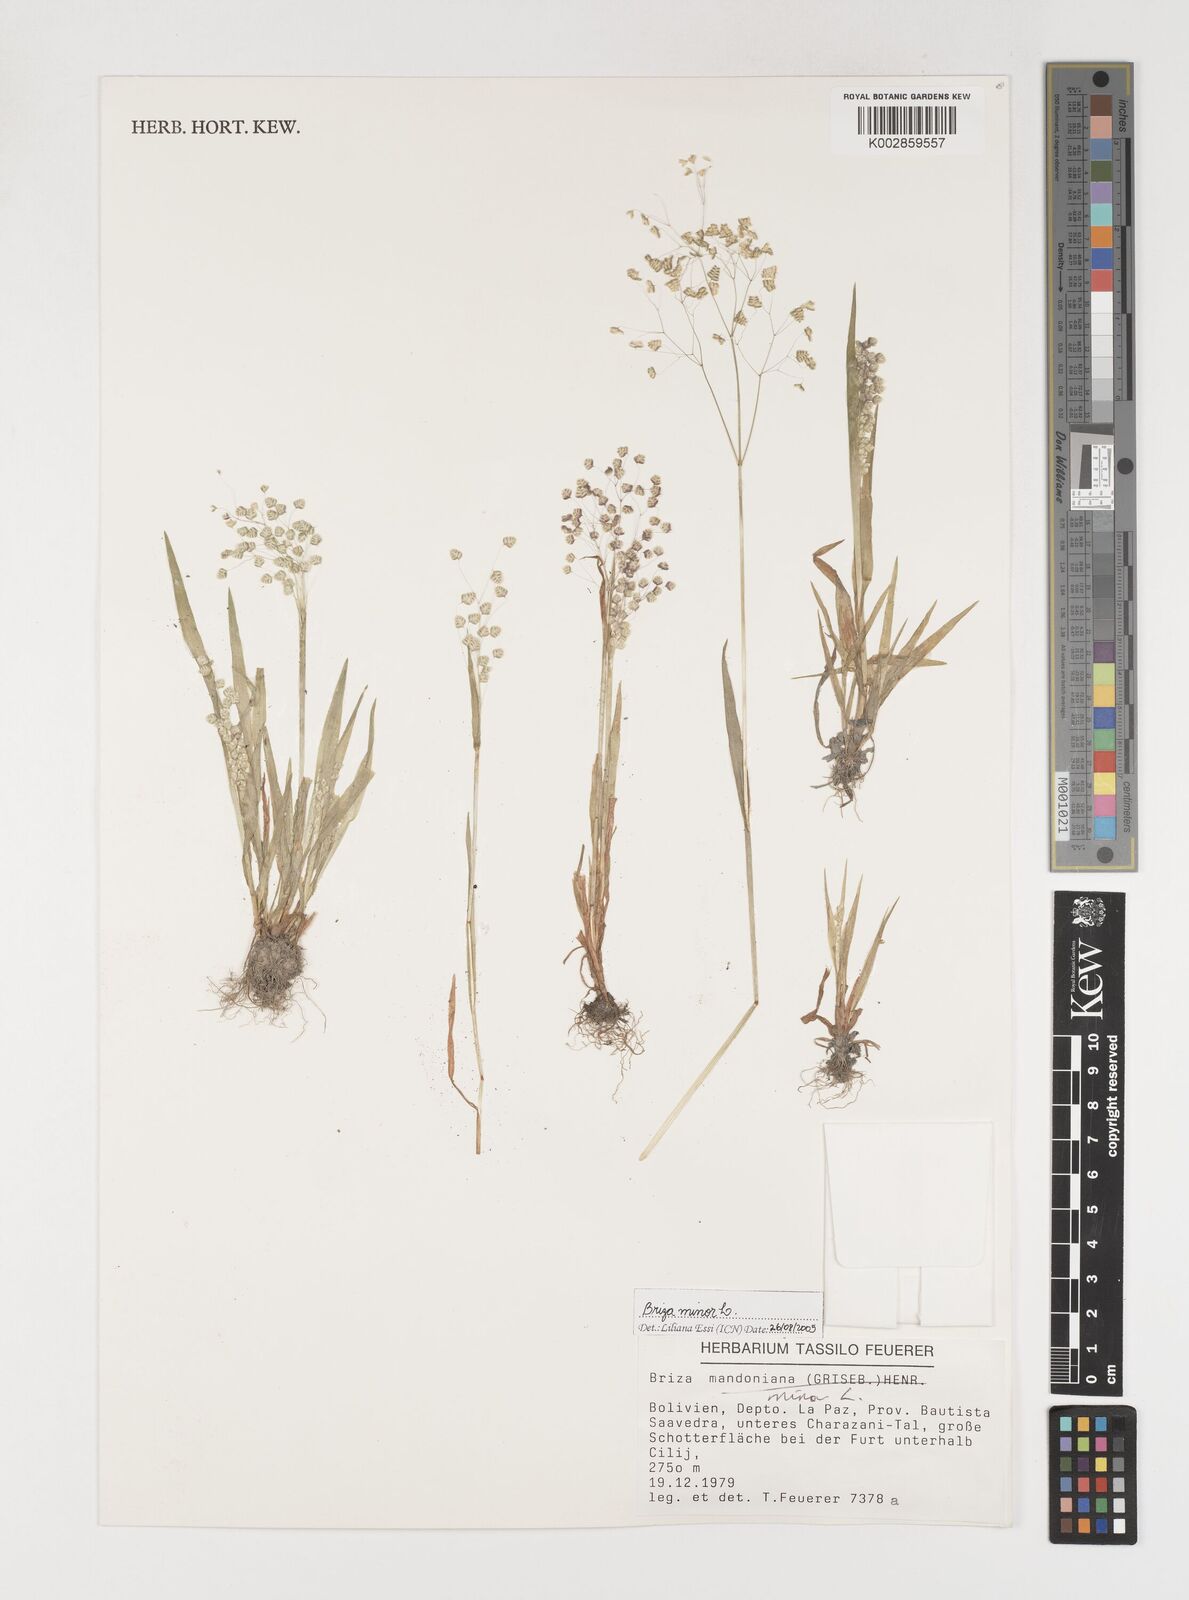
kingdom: Plantae
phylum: Tracheophyta
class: Liliopsida
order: Poales
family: Poaceae
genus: Briza
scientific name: Briza minor
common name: Lesser quaking-grass
